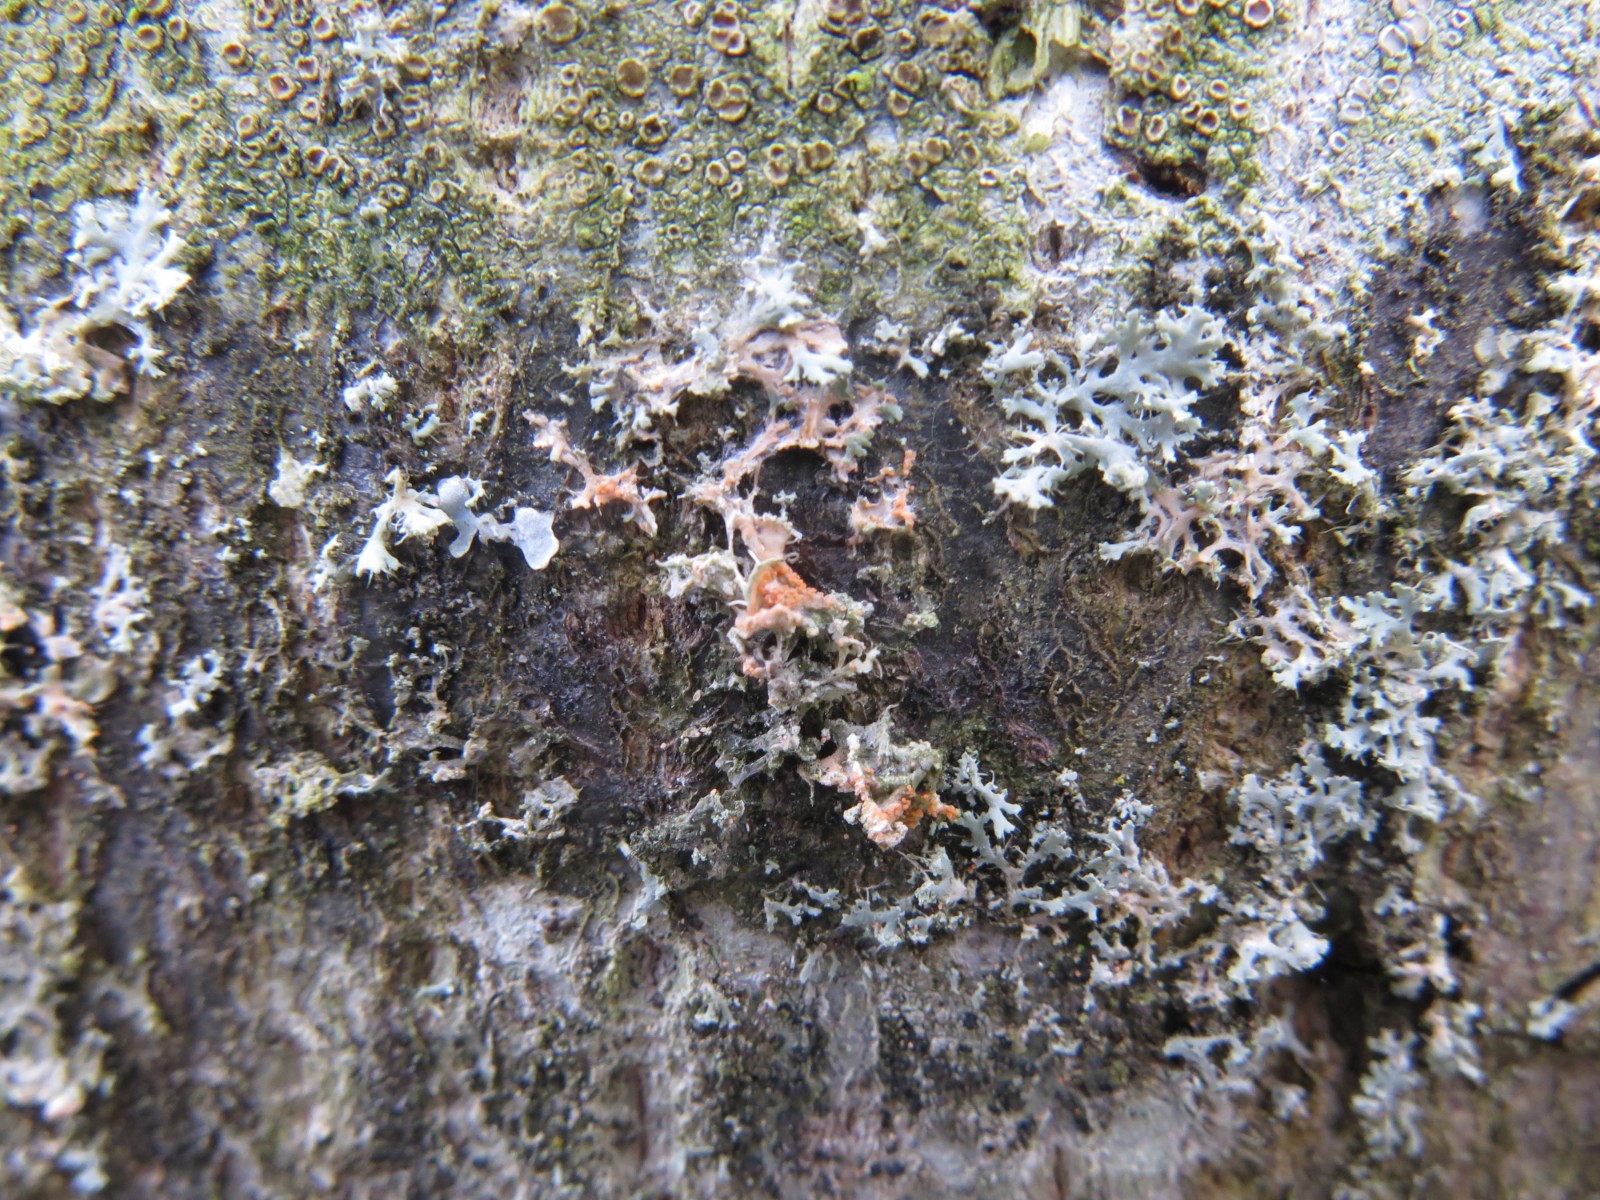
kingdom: Fungi
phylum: Basidiomycota
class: Agaricomycetes
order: Corticiales
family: Corticiaceae
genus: Erythricium
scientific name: Erythricium aurantiacum
